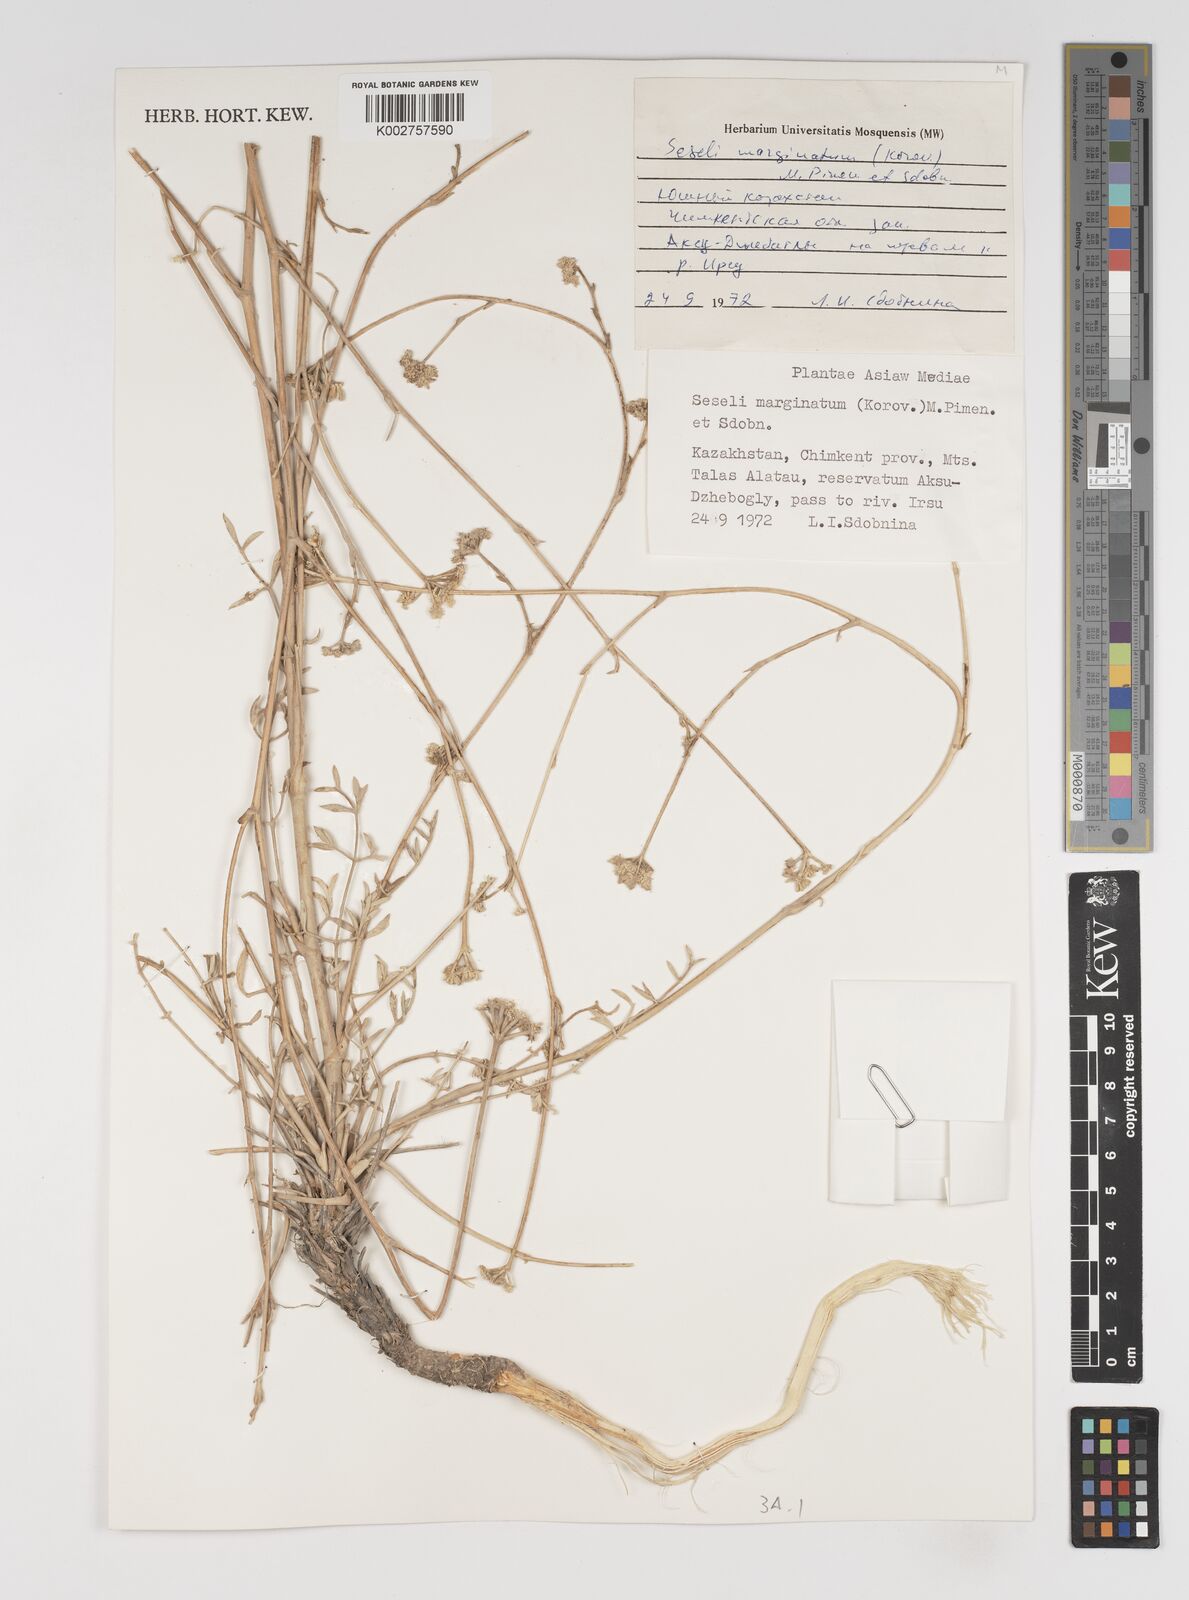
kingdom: Plantae
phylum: Tracheophyta
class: Magnoliopsida
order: Apiales
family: Apiaceae
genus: Seseli
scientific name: Seseli mucronatum
